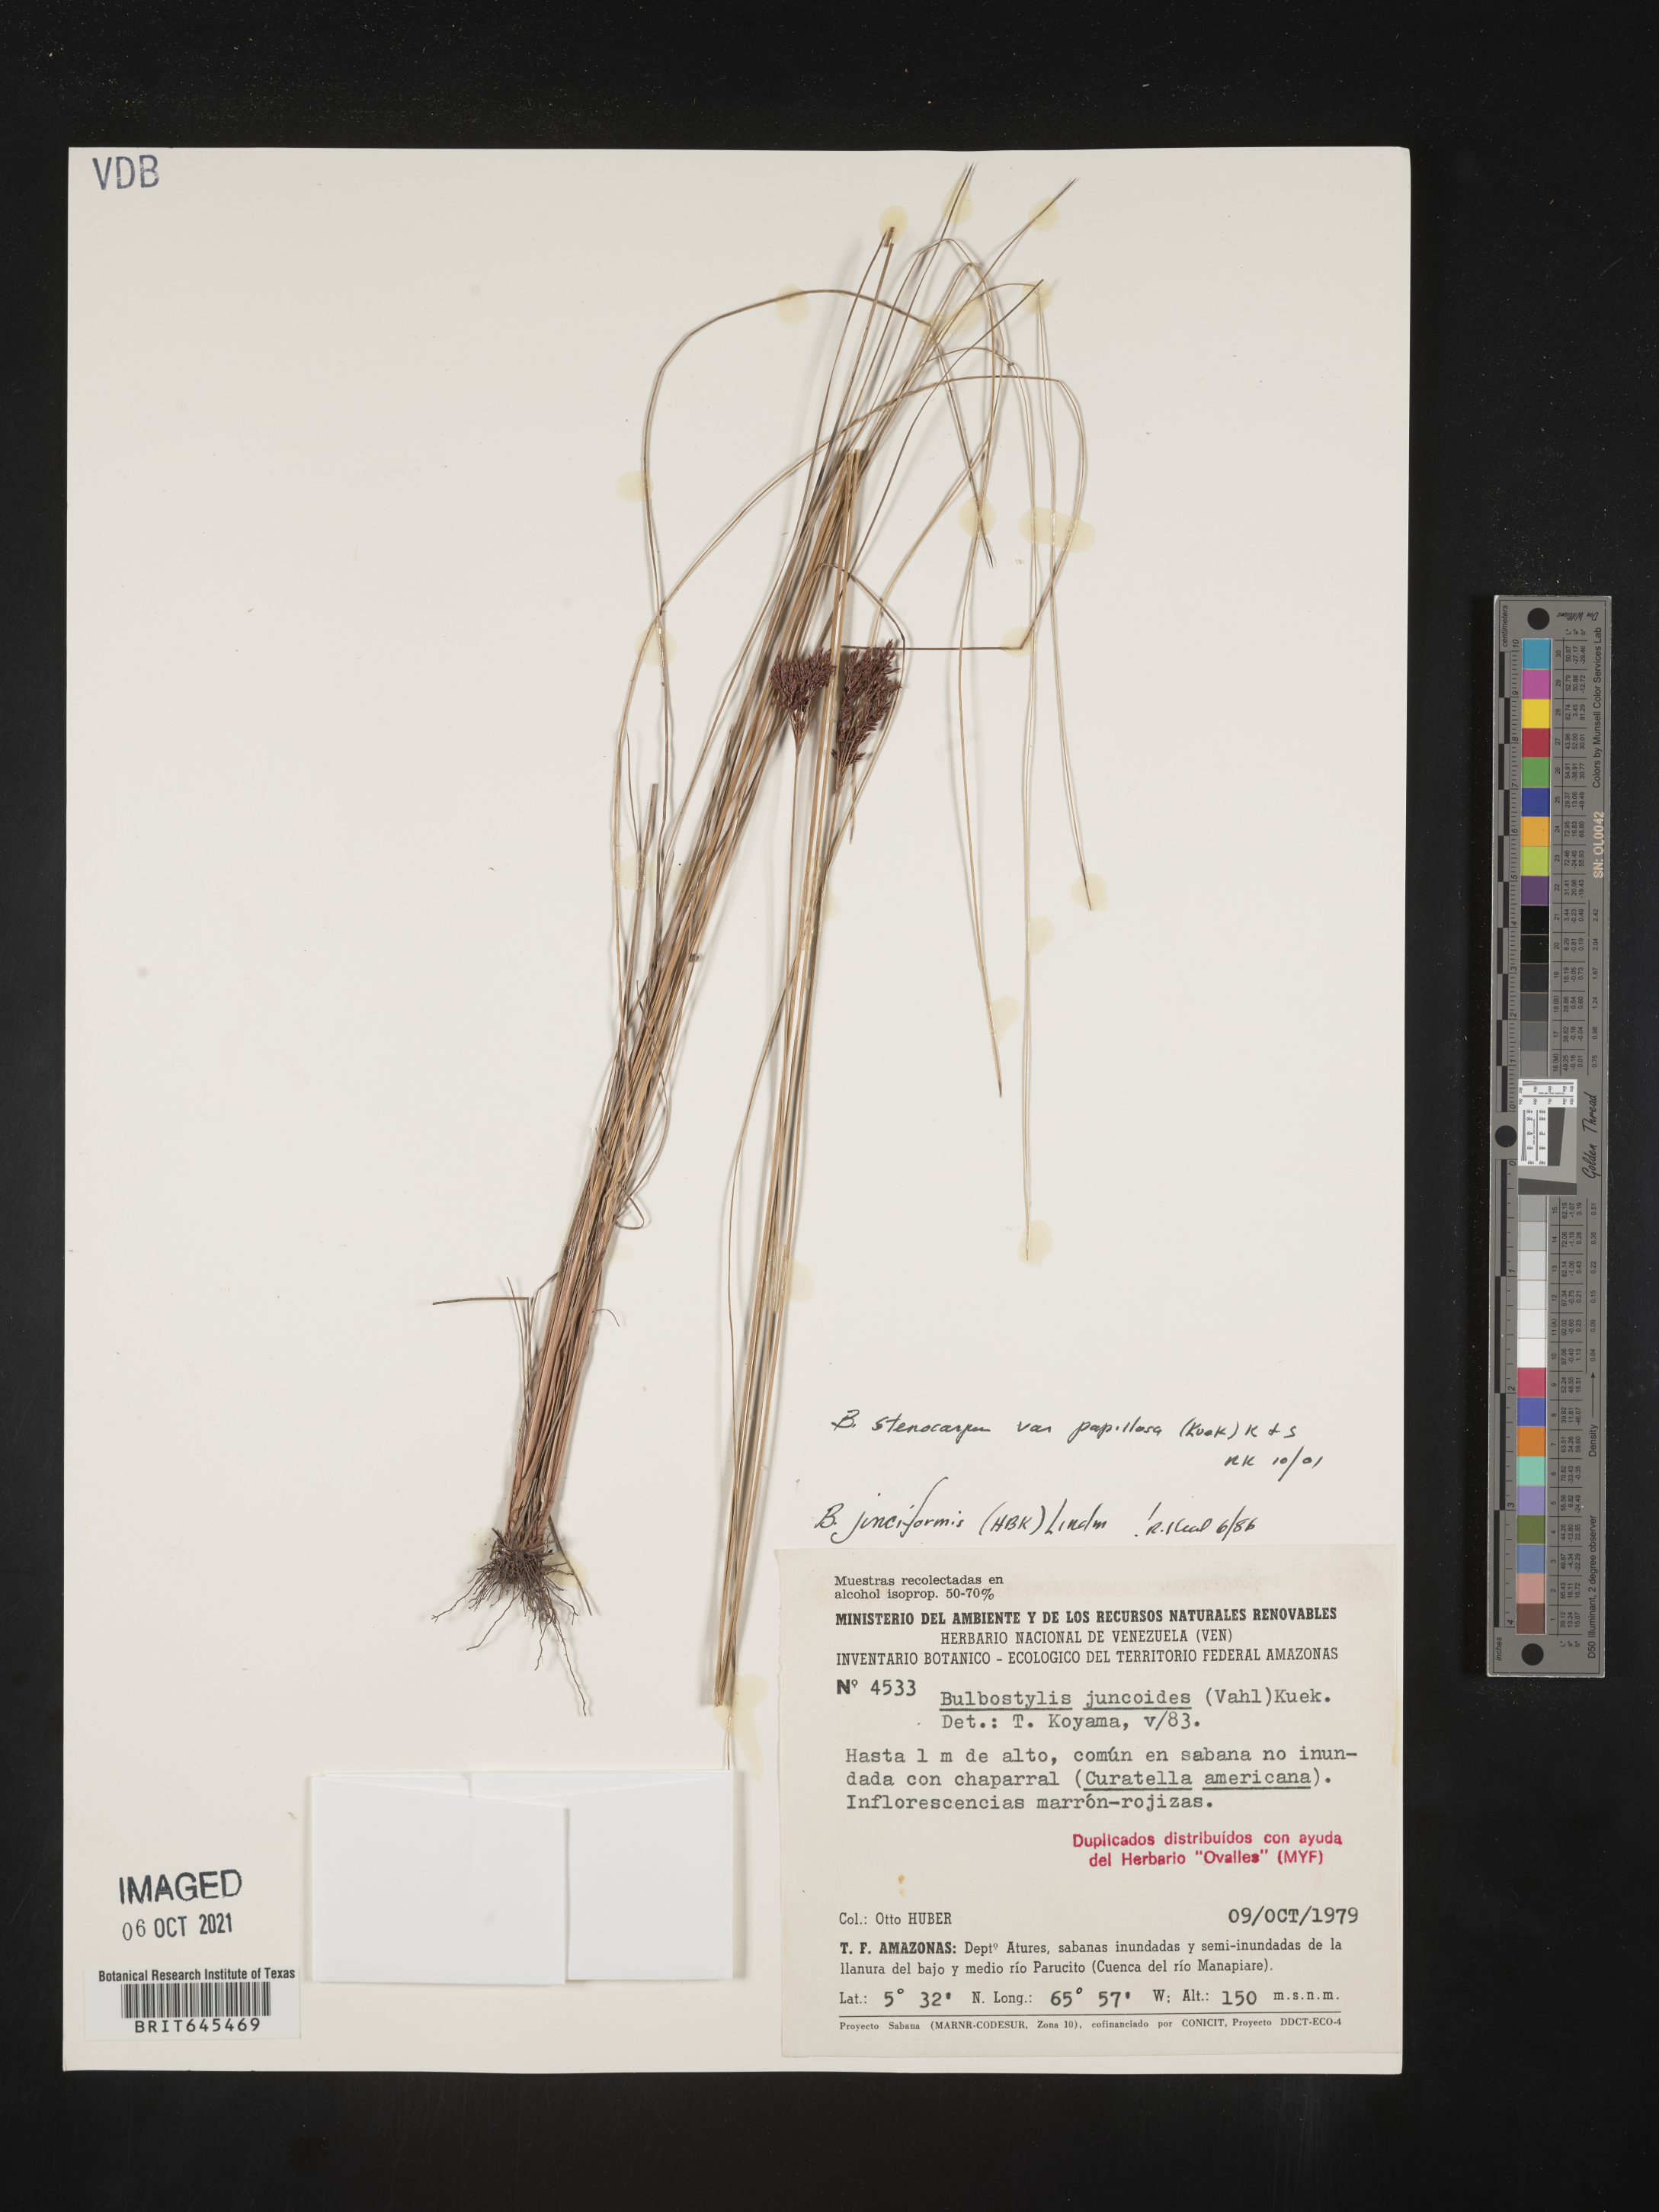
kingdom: Plantae
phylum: Tracheophyta
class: Liliopsida
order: Poales
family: Cyperaceae
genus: Bulbostylis
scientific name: Bulbostylis stenocarpa
